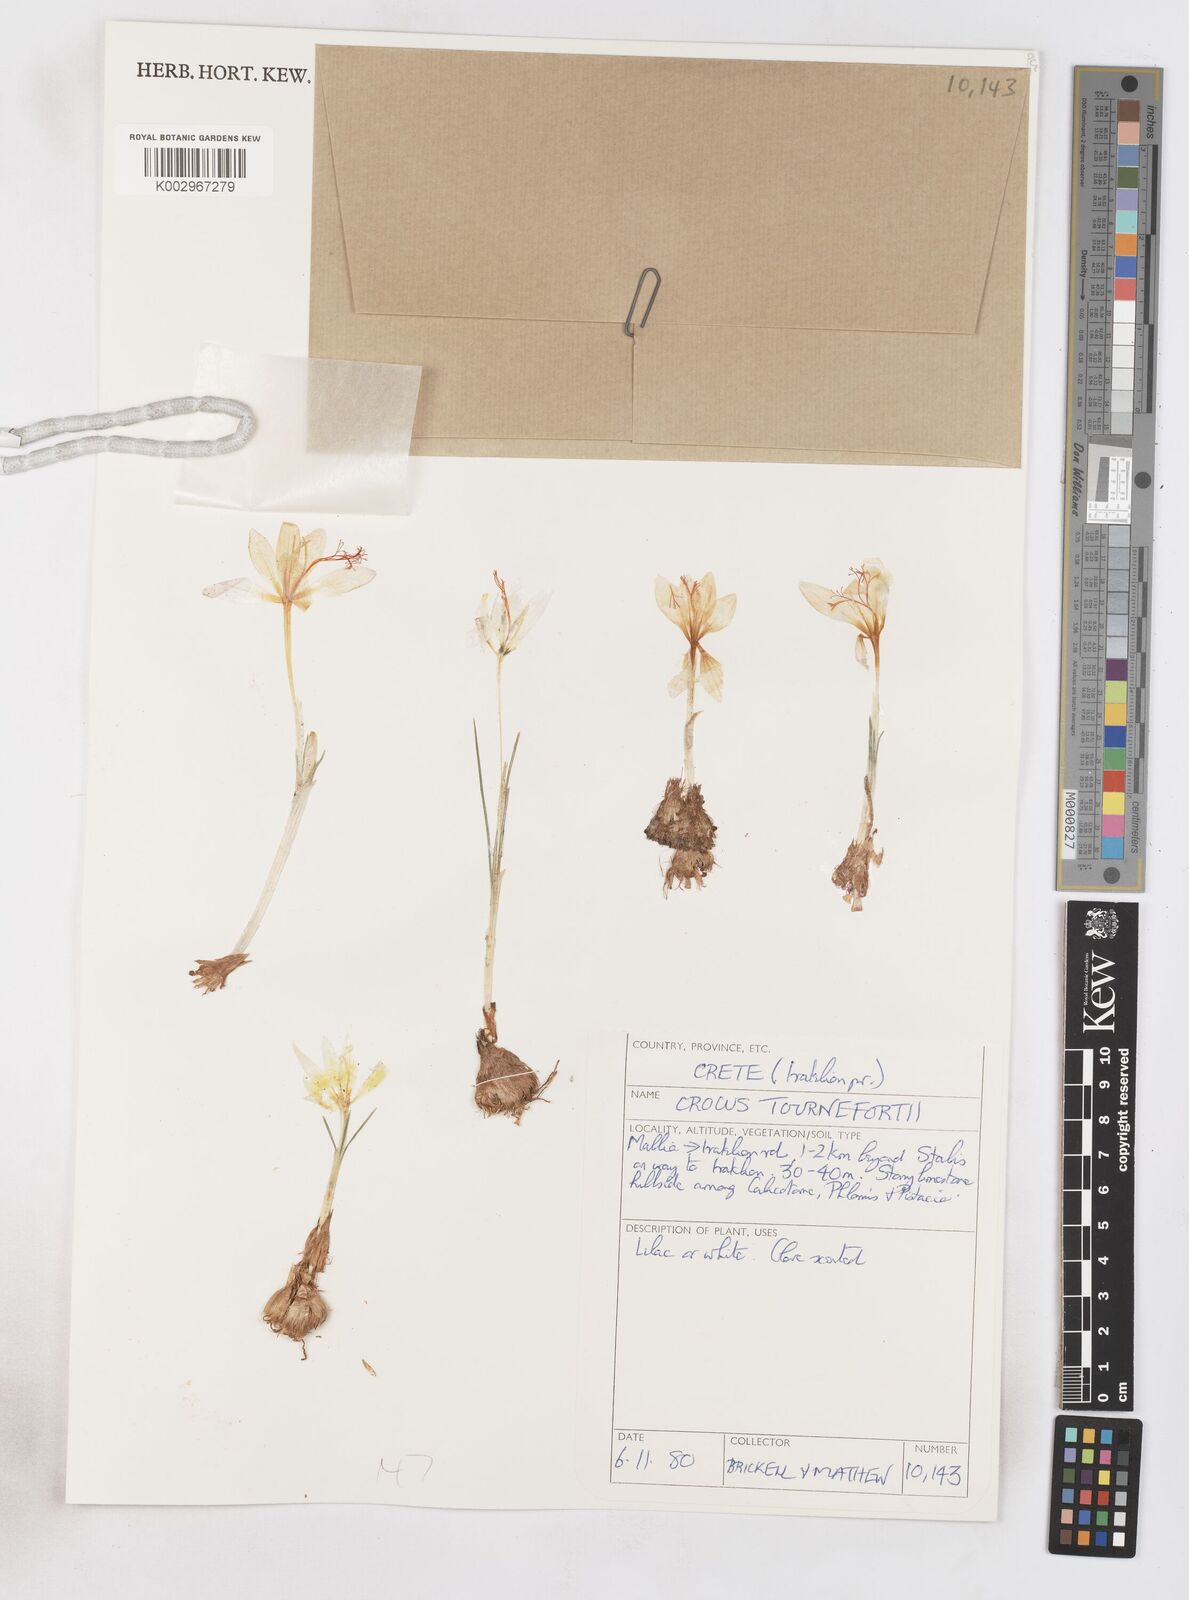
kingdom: Plantae
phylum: Tracheophyta
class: Liliopsida
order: Asparagales
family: Iridaceae
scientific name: Iridaceae
